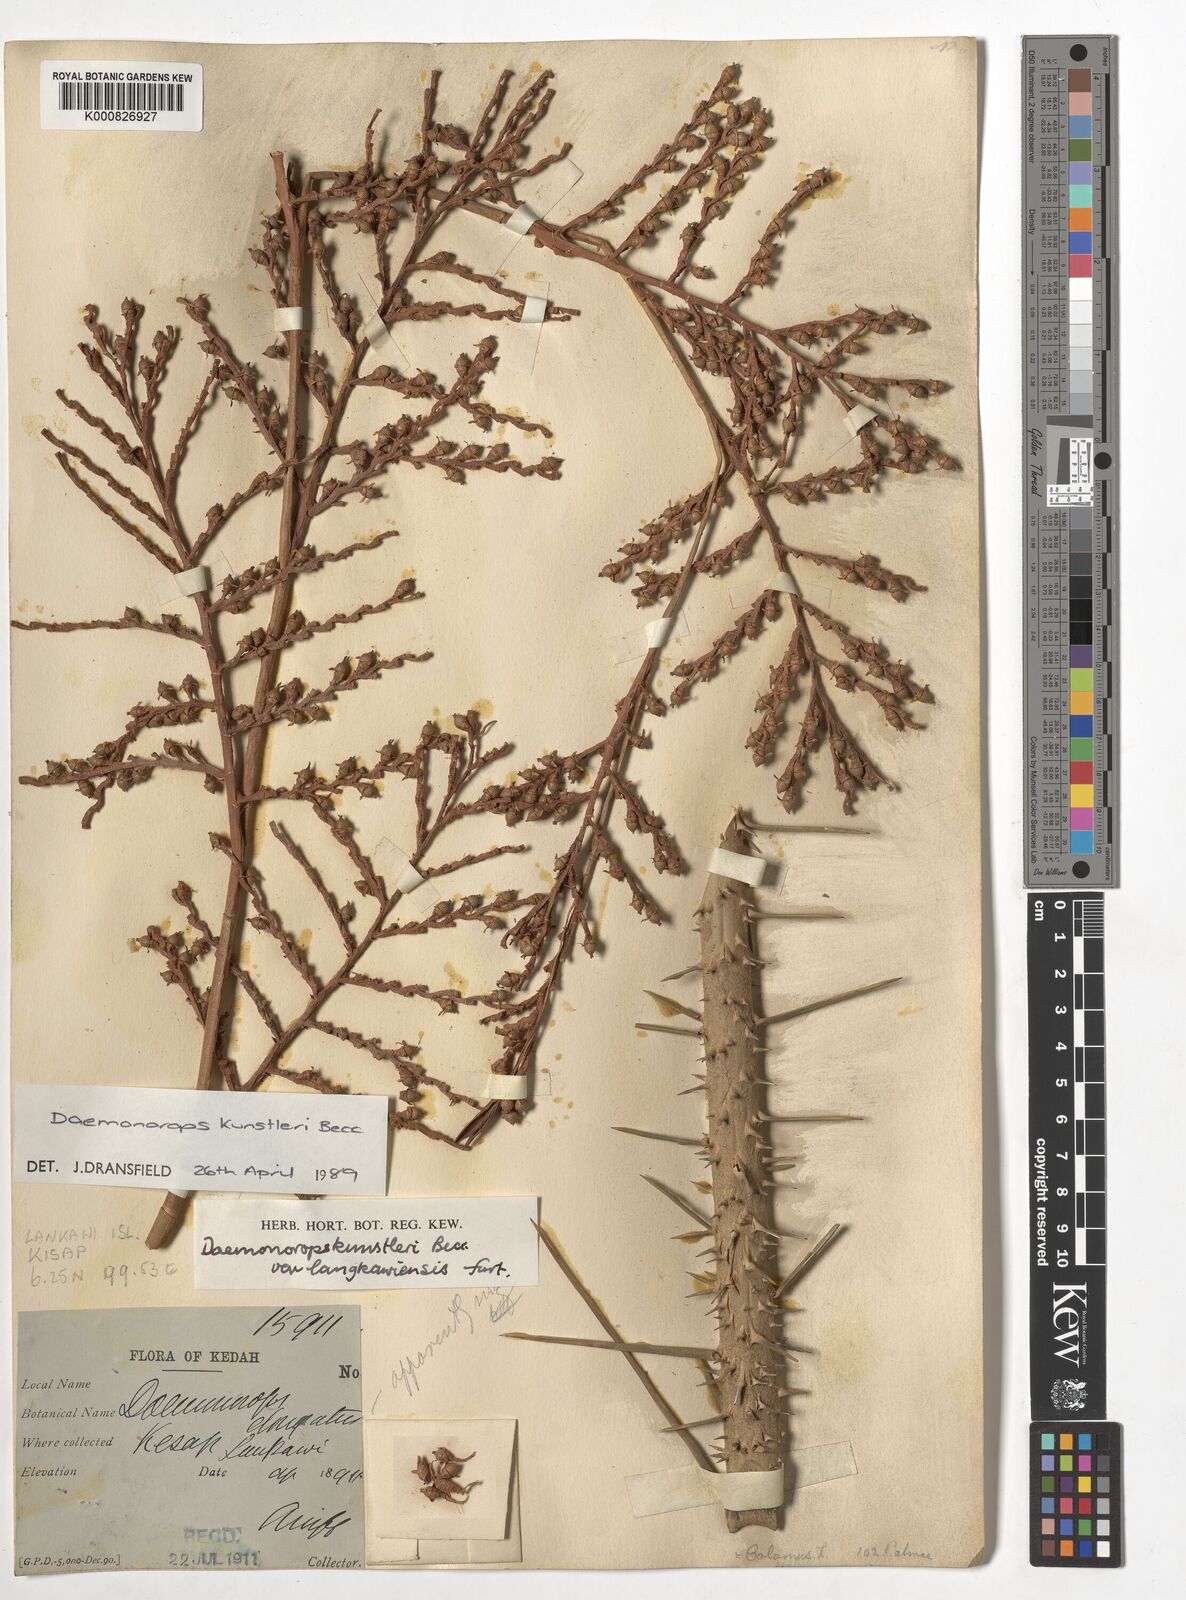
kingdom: Plantae
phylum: Tracheophyta
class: Liliopsida
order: Arecales
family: Arecaceae
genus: Calamus
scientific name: Calamus kunstleri
